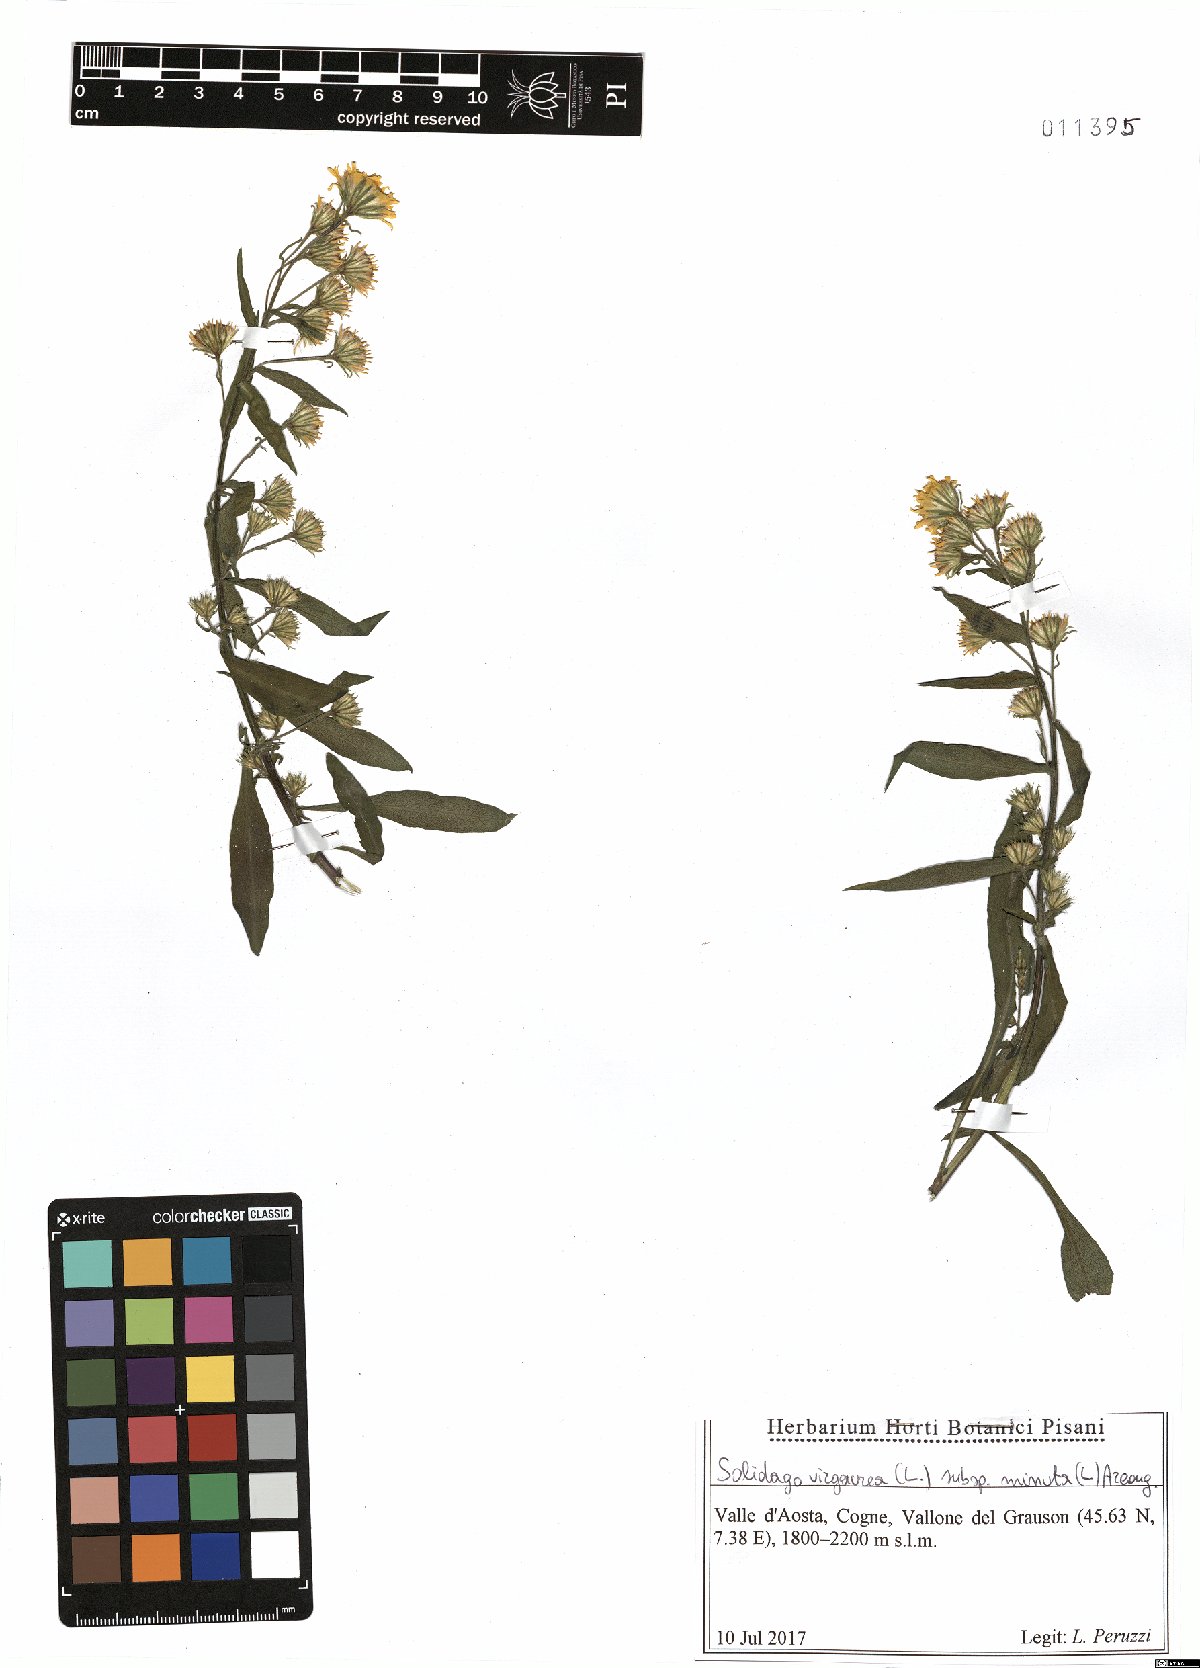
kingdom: Plantae
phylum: Tracheophyta
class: Magnoliopsida
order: Asterales
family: Asteraceae
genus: Solidago
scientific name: Solidago virgaurea
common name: Goldenrod
